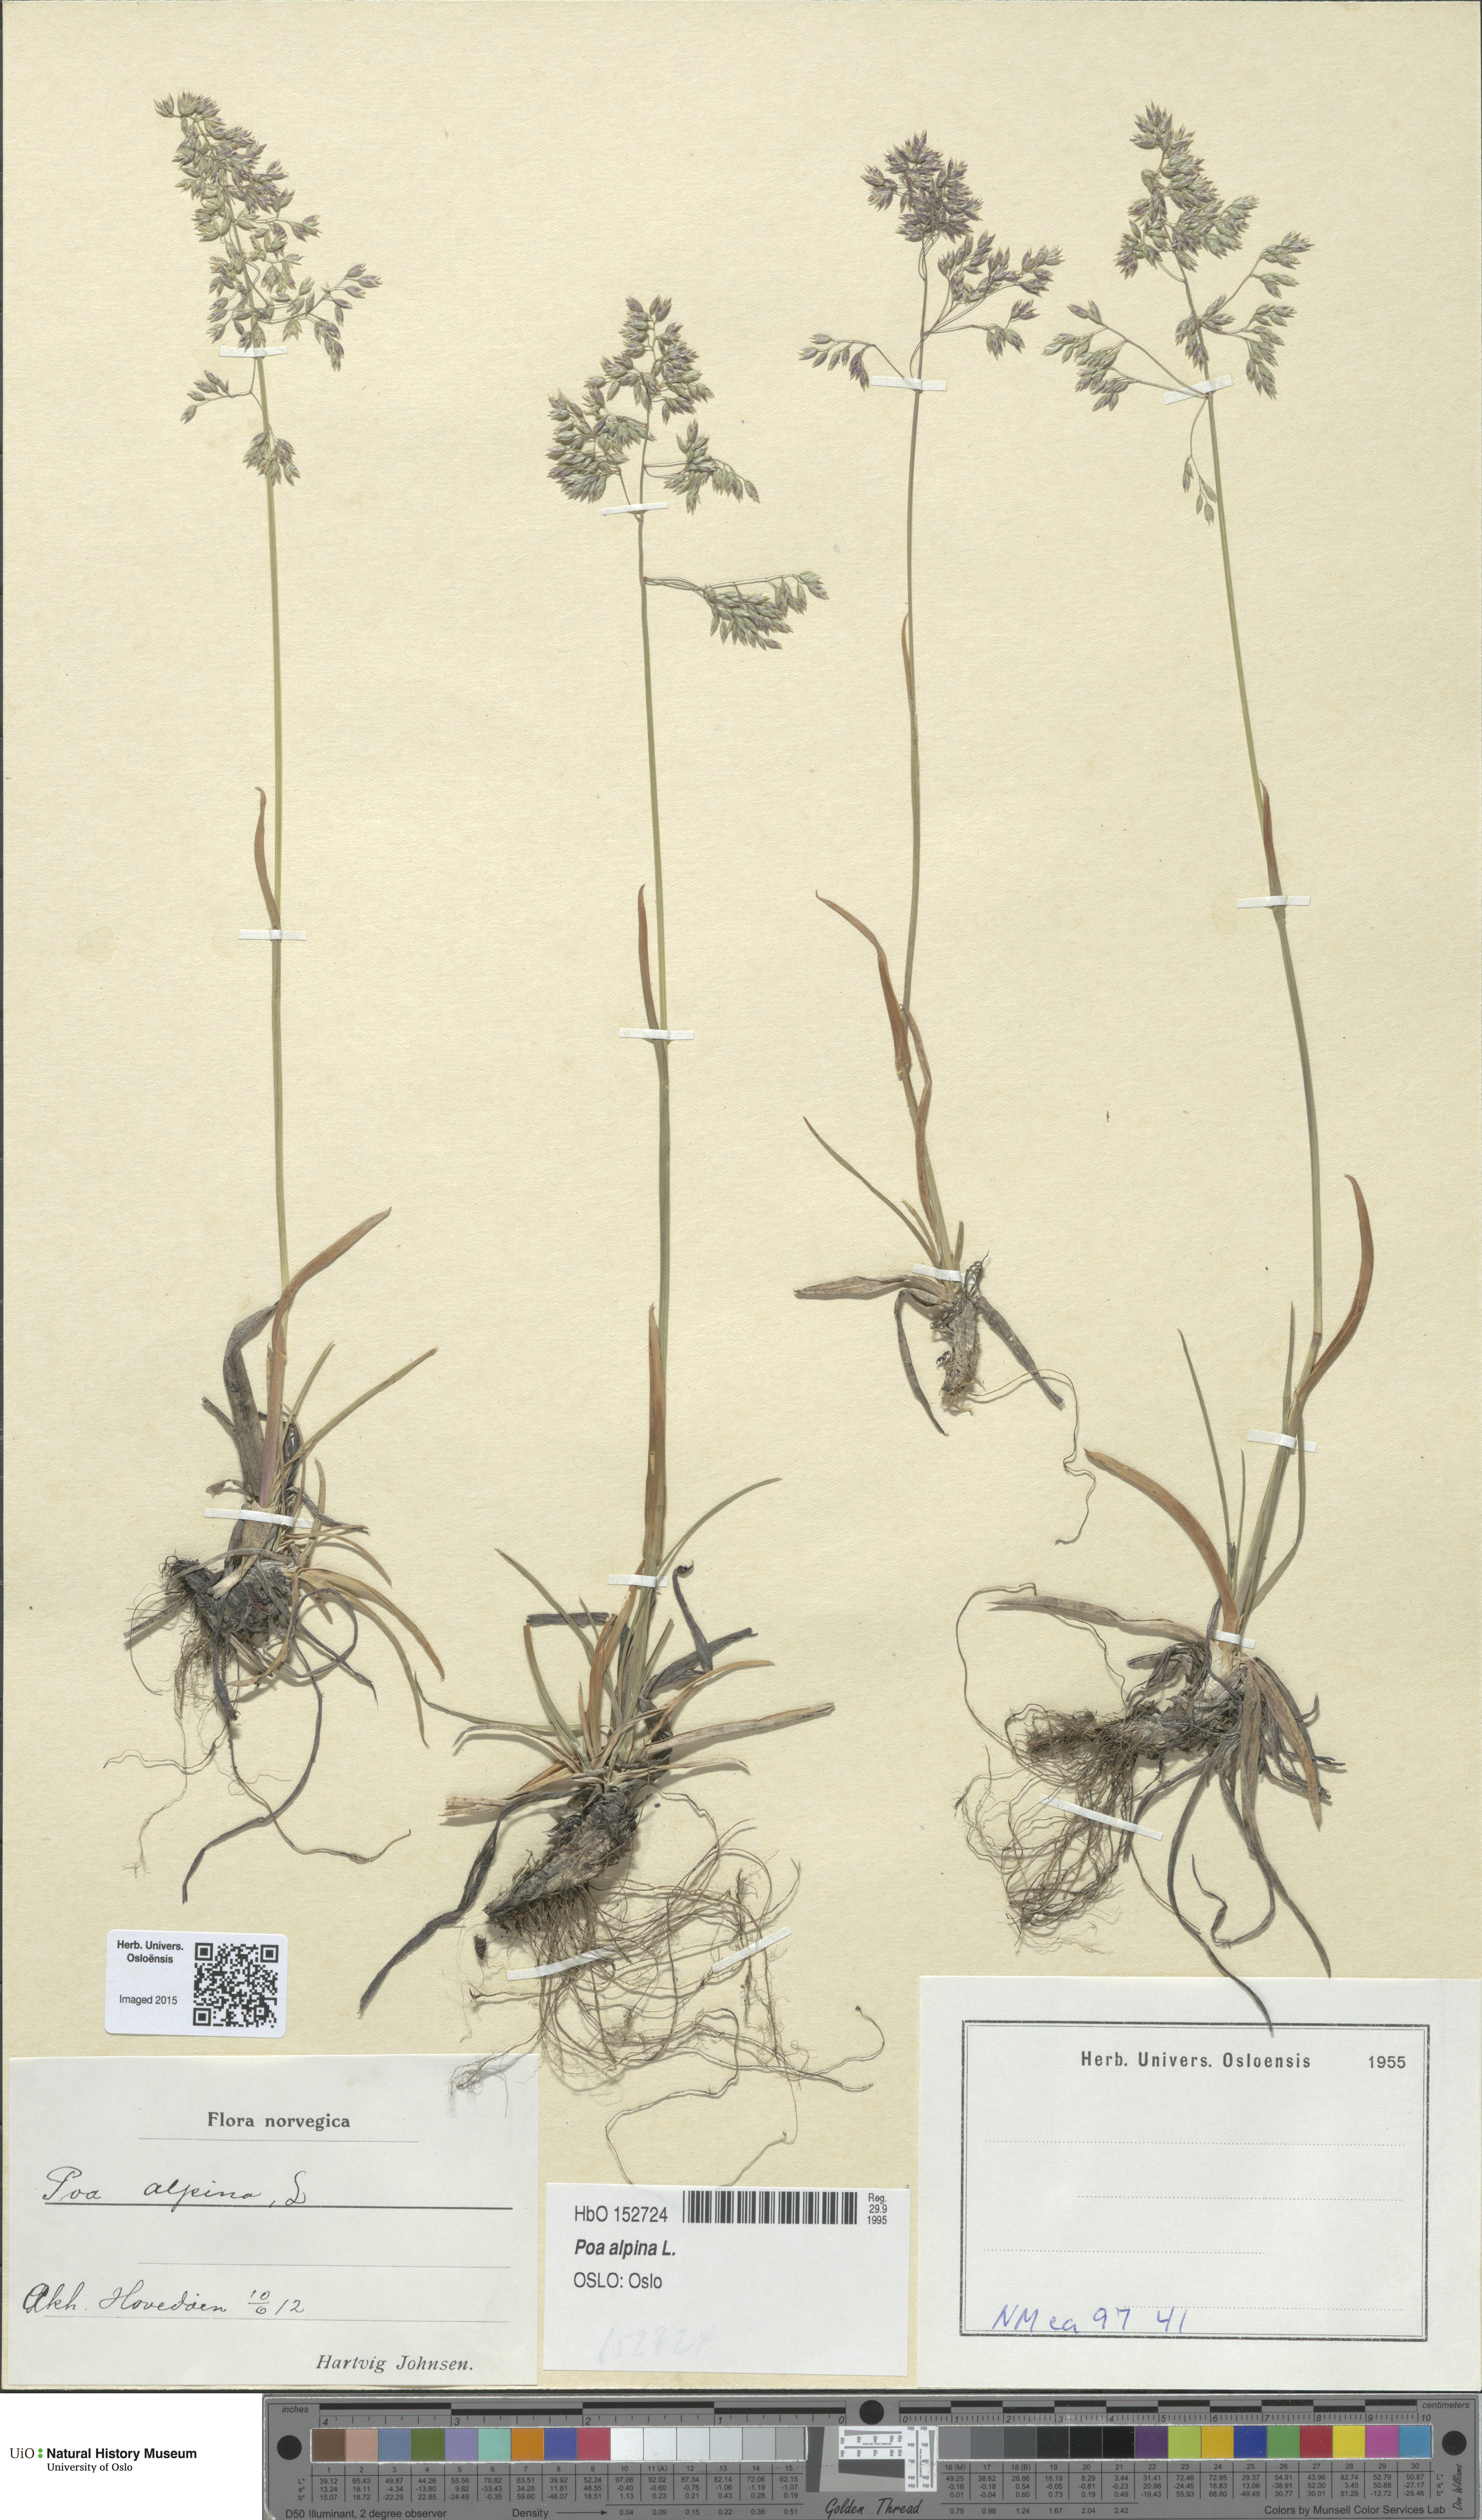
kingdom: Plantae
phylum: Tracheophyta
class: Liliopsida
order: Poales
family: Poaceae
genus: Poa
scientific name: Poa alpina
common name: Alpine bluegrass
